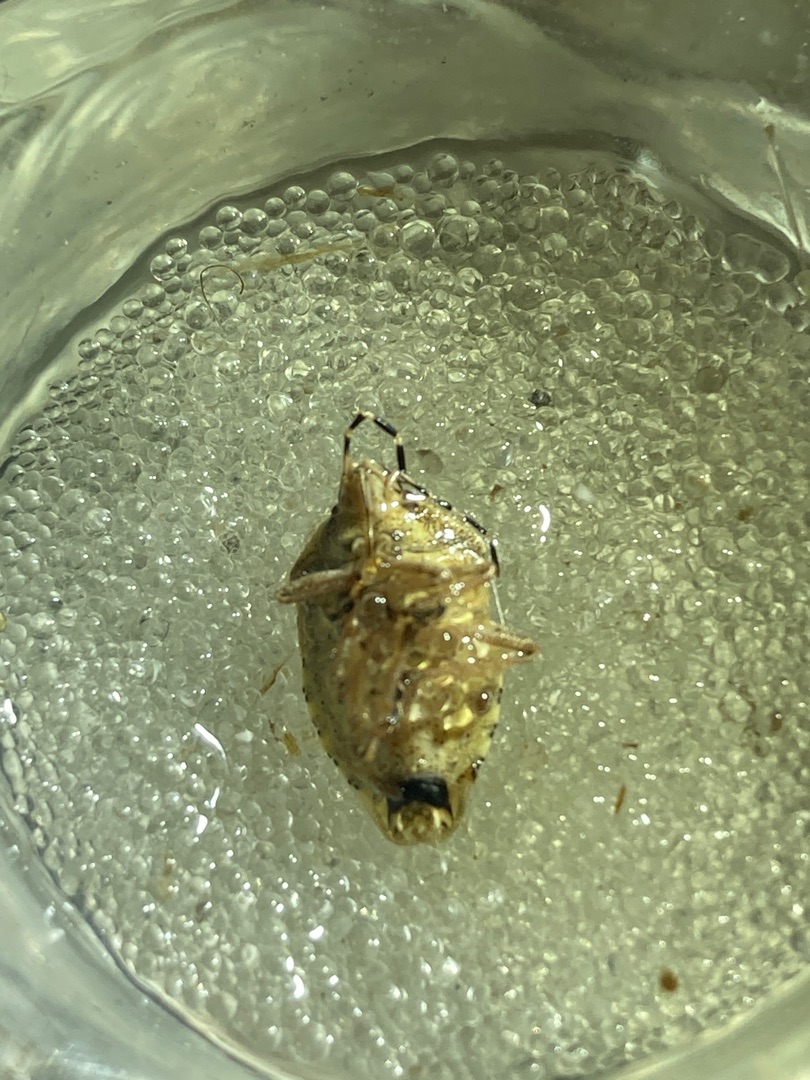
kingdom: Animalia
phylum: Arthropoda
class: Insecta
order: Hemiptera
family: Pentatomidae
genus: Dolycoris
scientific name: Dolycoris baccarum
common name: Almindelig bærtæge
